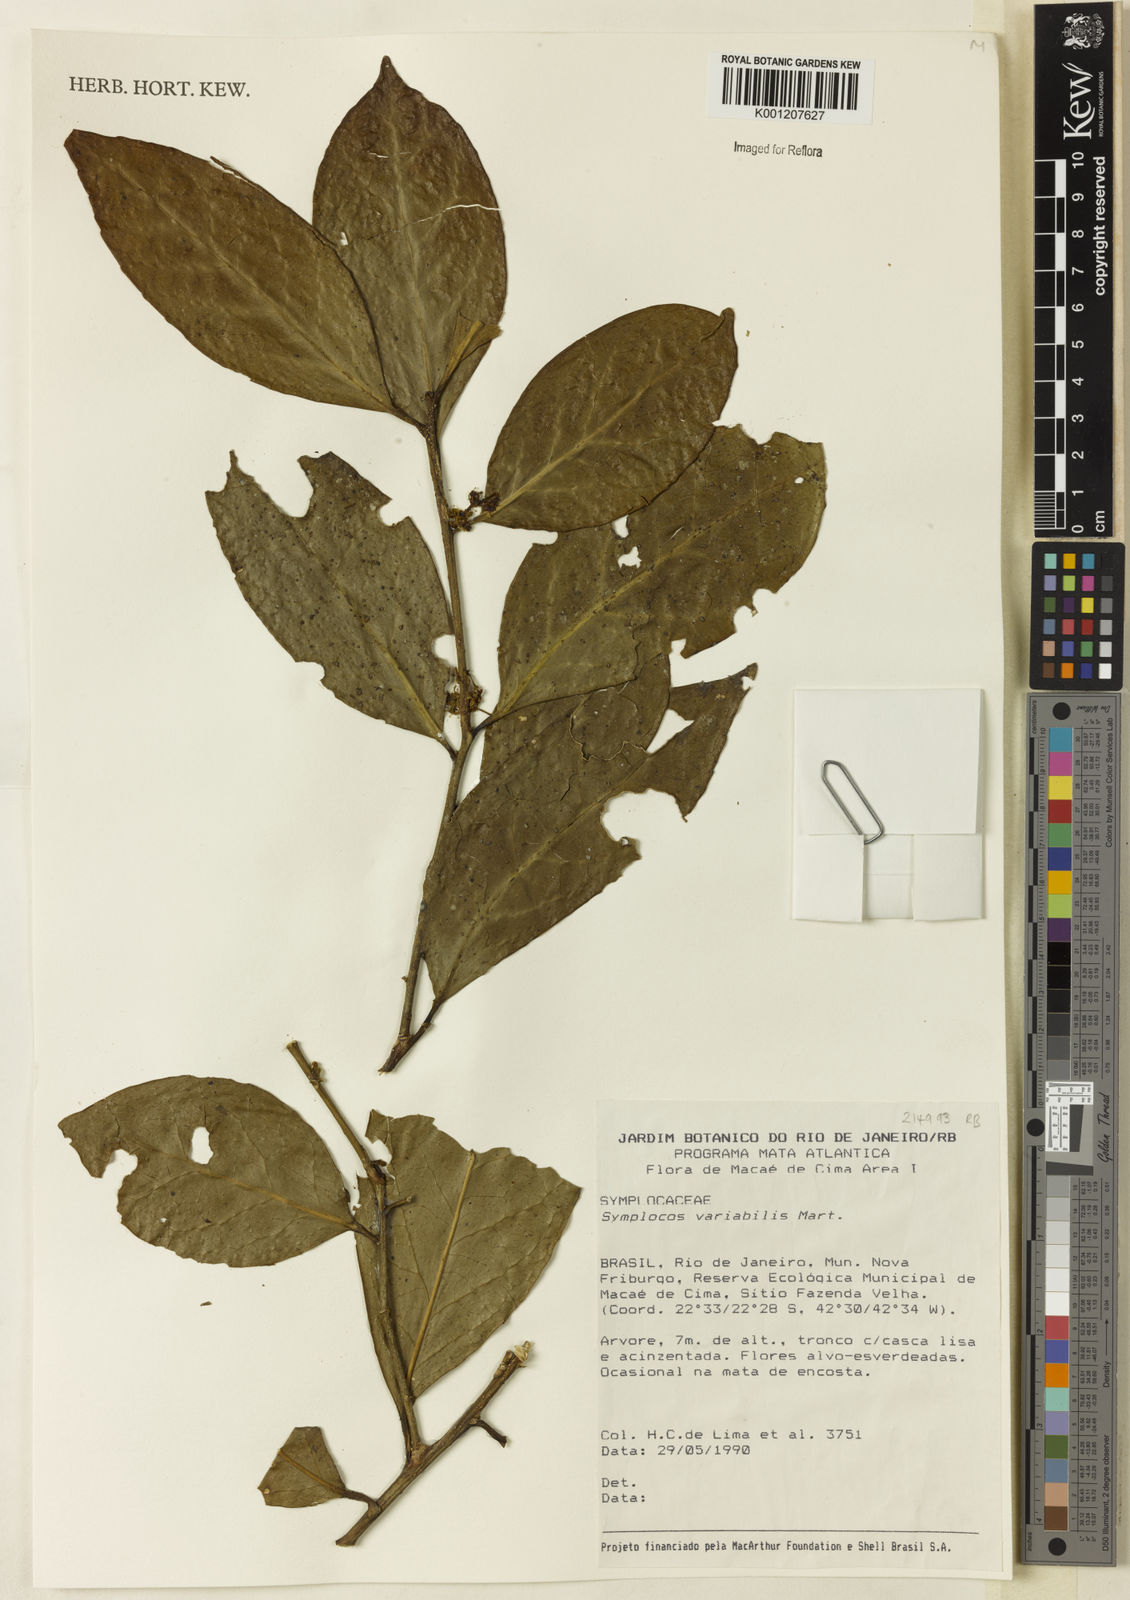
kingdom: Plantae
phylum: Tracheophyta
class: Magnoliopsida
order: Ericales
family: Symplocaceae
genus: Symplocos
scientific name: Symplocos estrellensis
